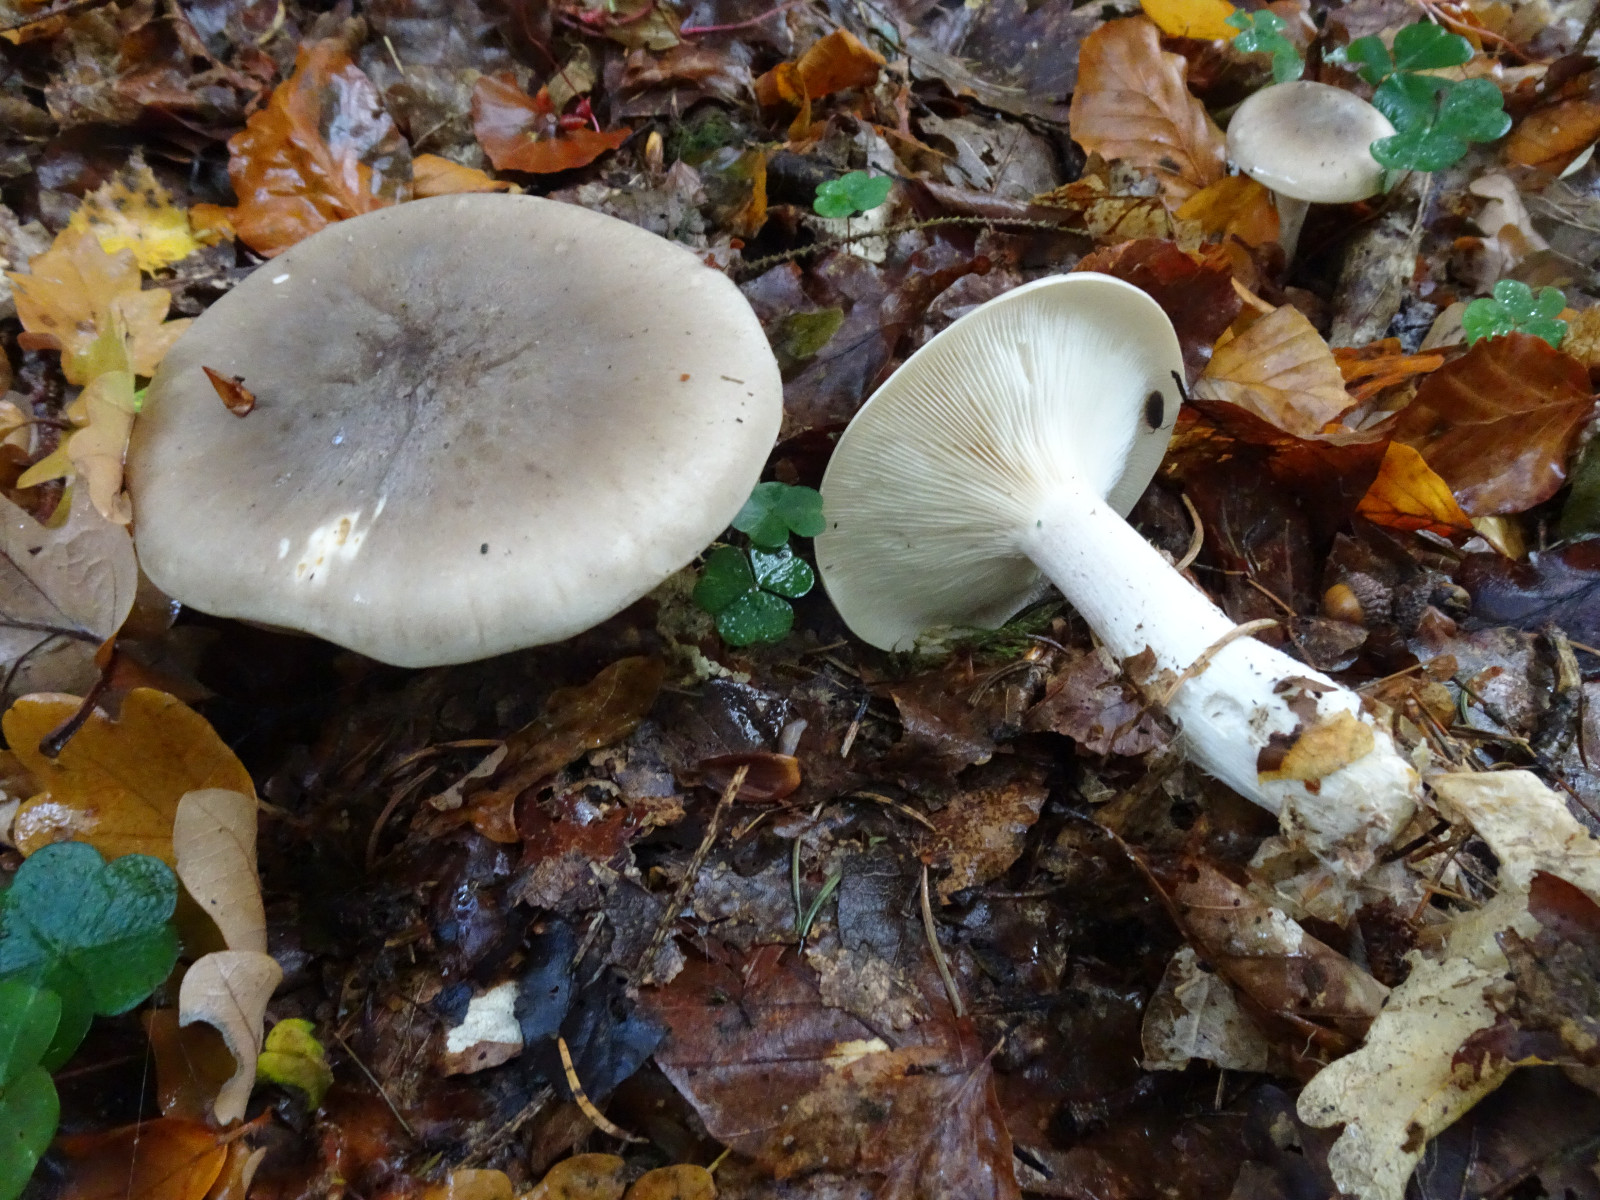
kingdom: Fungi
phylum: Basidiomycota
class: Agaricomycetes
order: Agaricales
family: Tricholomataceae
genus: Clitocybe
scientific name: Clitocybe nebularis
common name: tåge-tragthat
